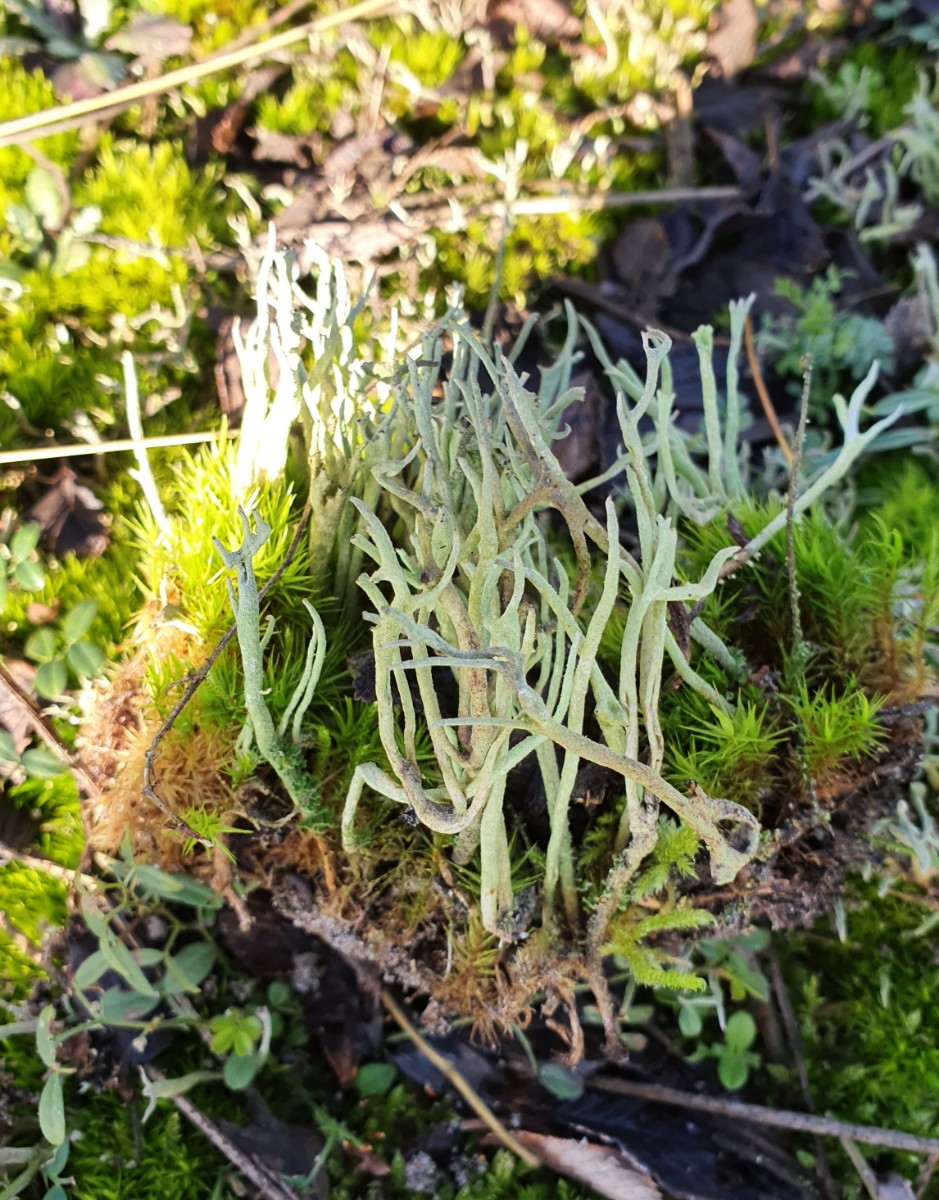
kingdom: Fungi
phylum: Ascomycota
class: Lecanoromycetes
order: Lecanorales
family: Cladoniaceae
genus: Cladonia
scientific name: Cladonia subulata
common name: spids bægerlav
